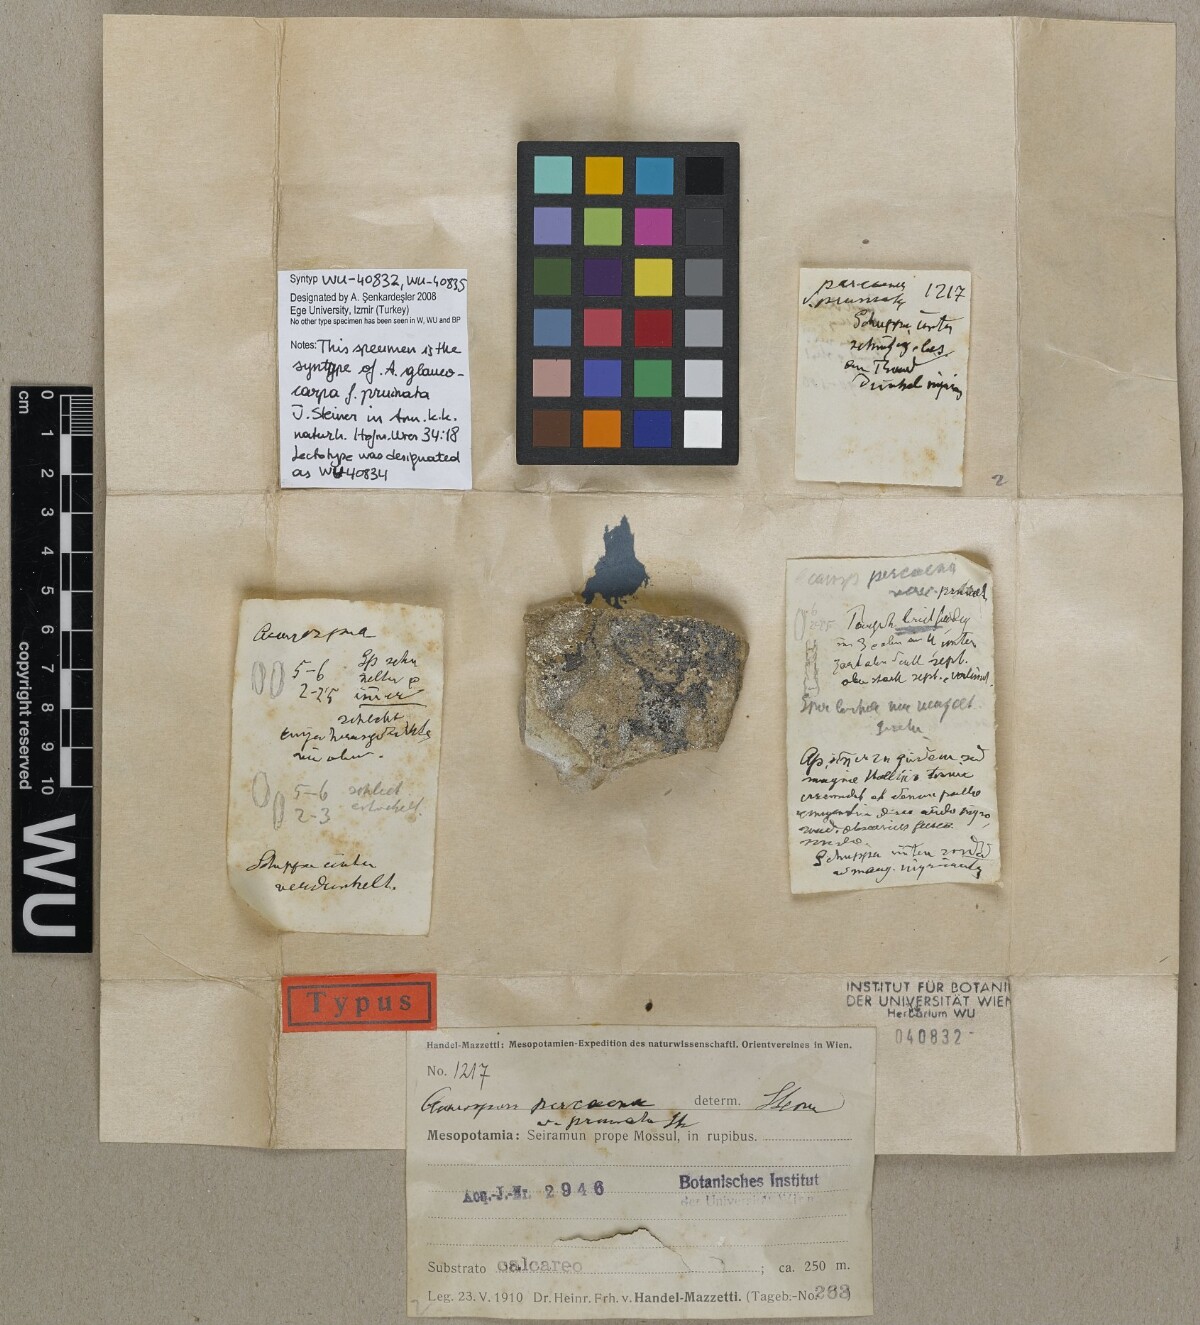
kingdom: Fungi
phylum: Ascomycota
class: Lecanoromycetes
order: Acarosporales
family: Acarosporaceae
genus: Acarospora
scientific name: Acarospora cervina
